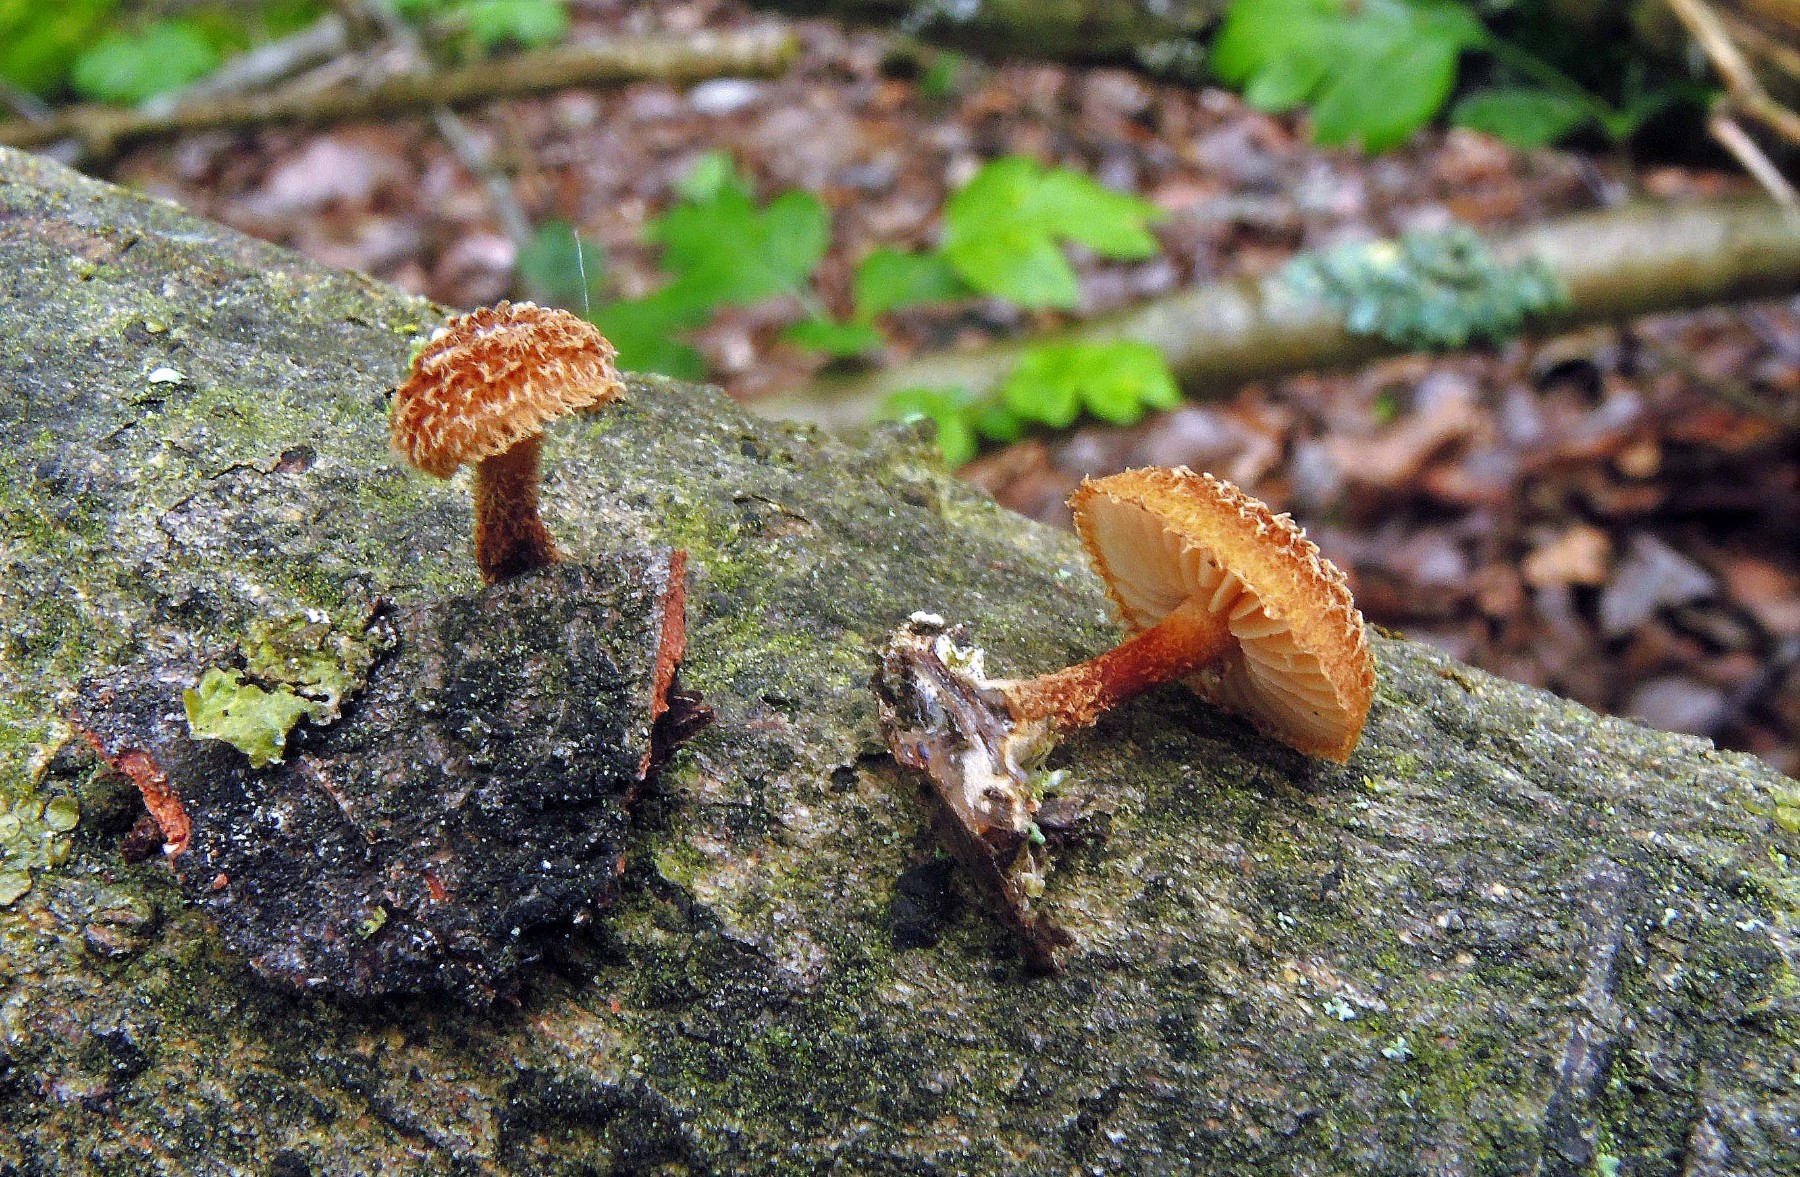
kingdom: Fungi
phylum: Basidiomycota
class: Agaricomycetes
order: Agaricales
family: Tubariaceae
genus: Phaeomarasmius
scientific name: Phaeomarasmius erinaceus
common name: spidsskælhat
